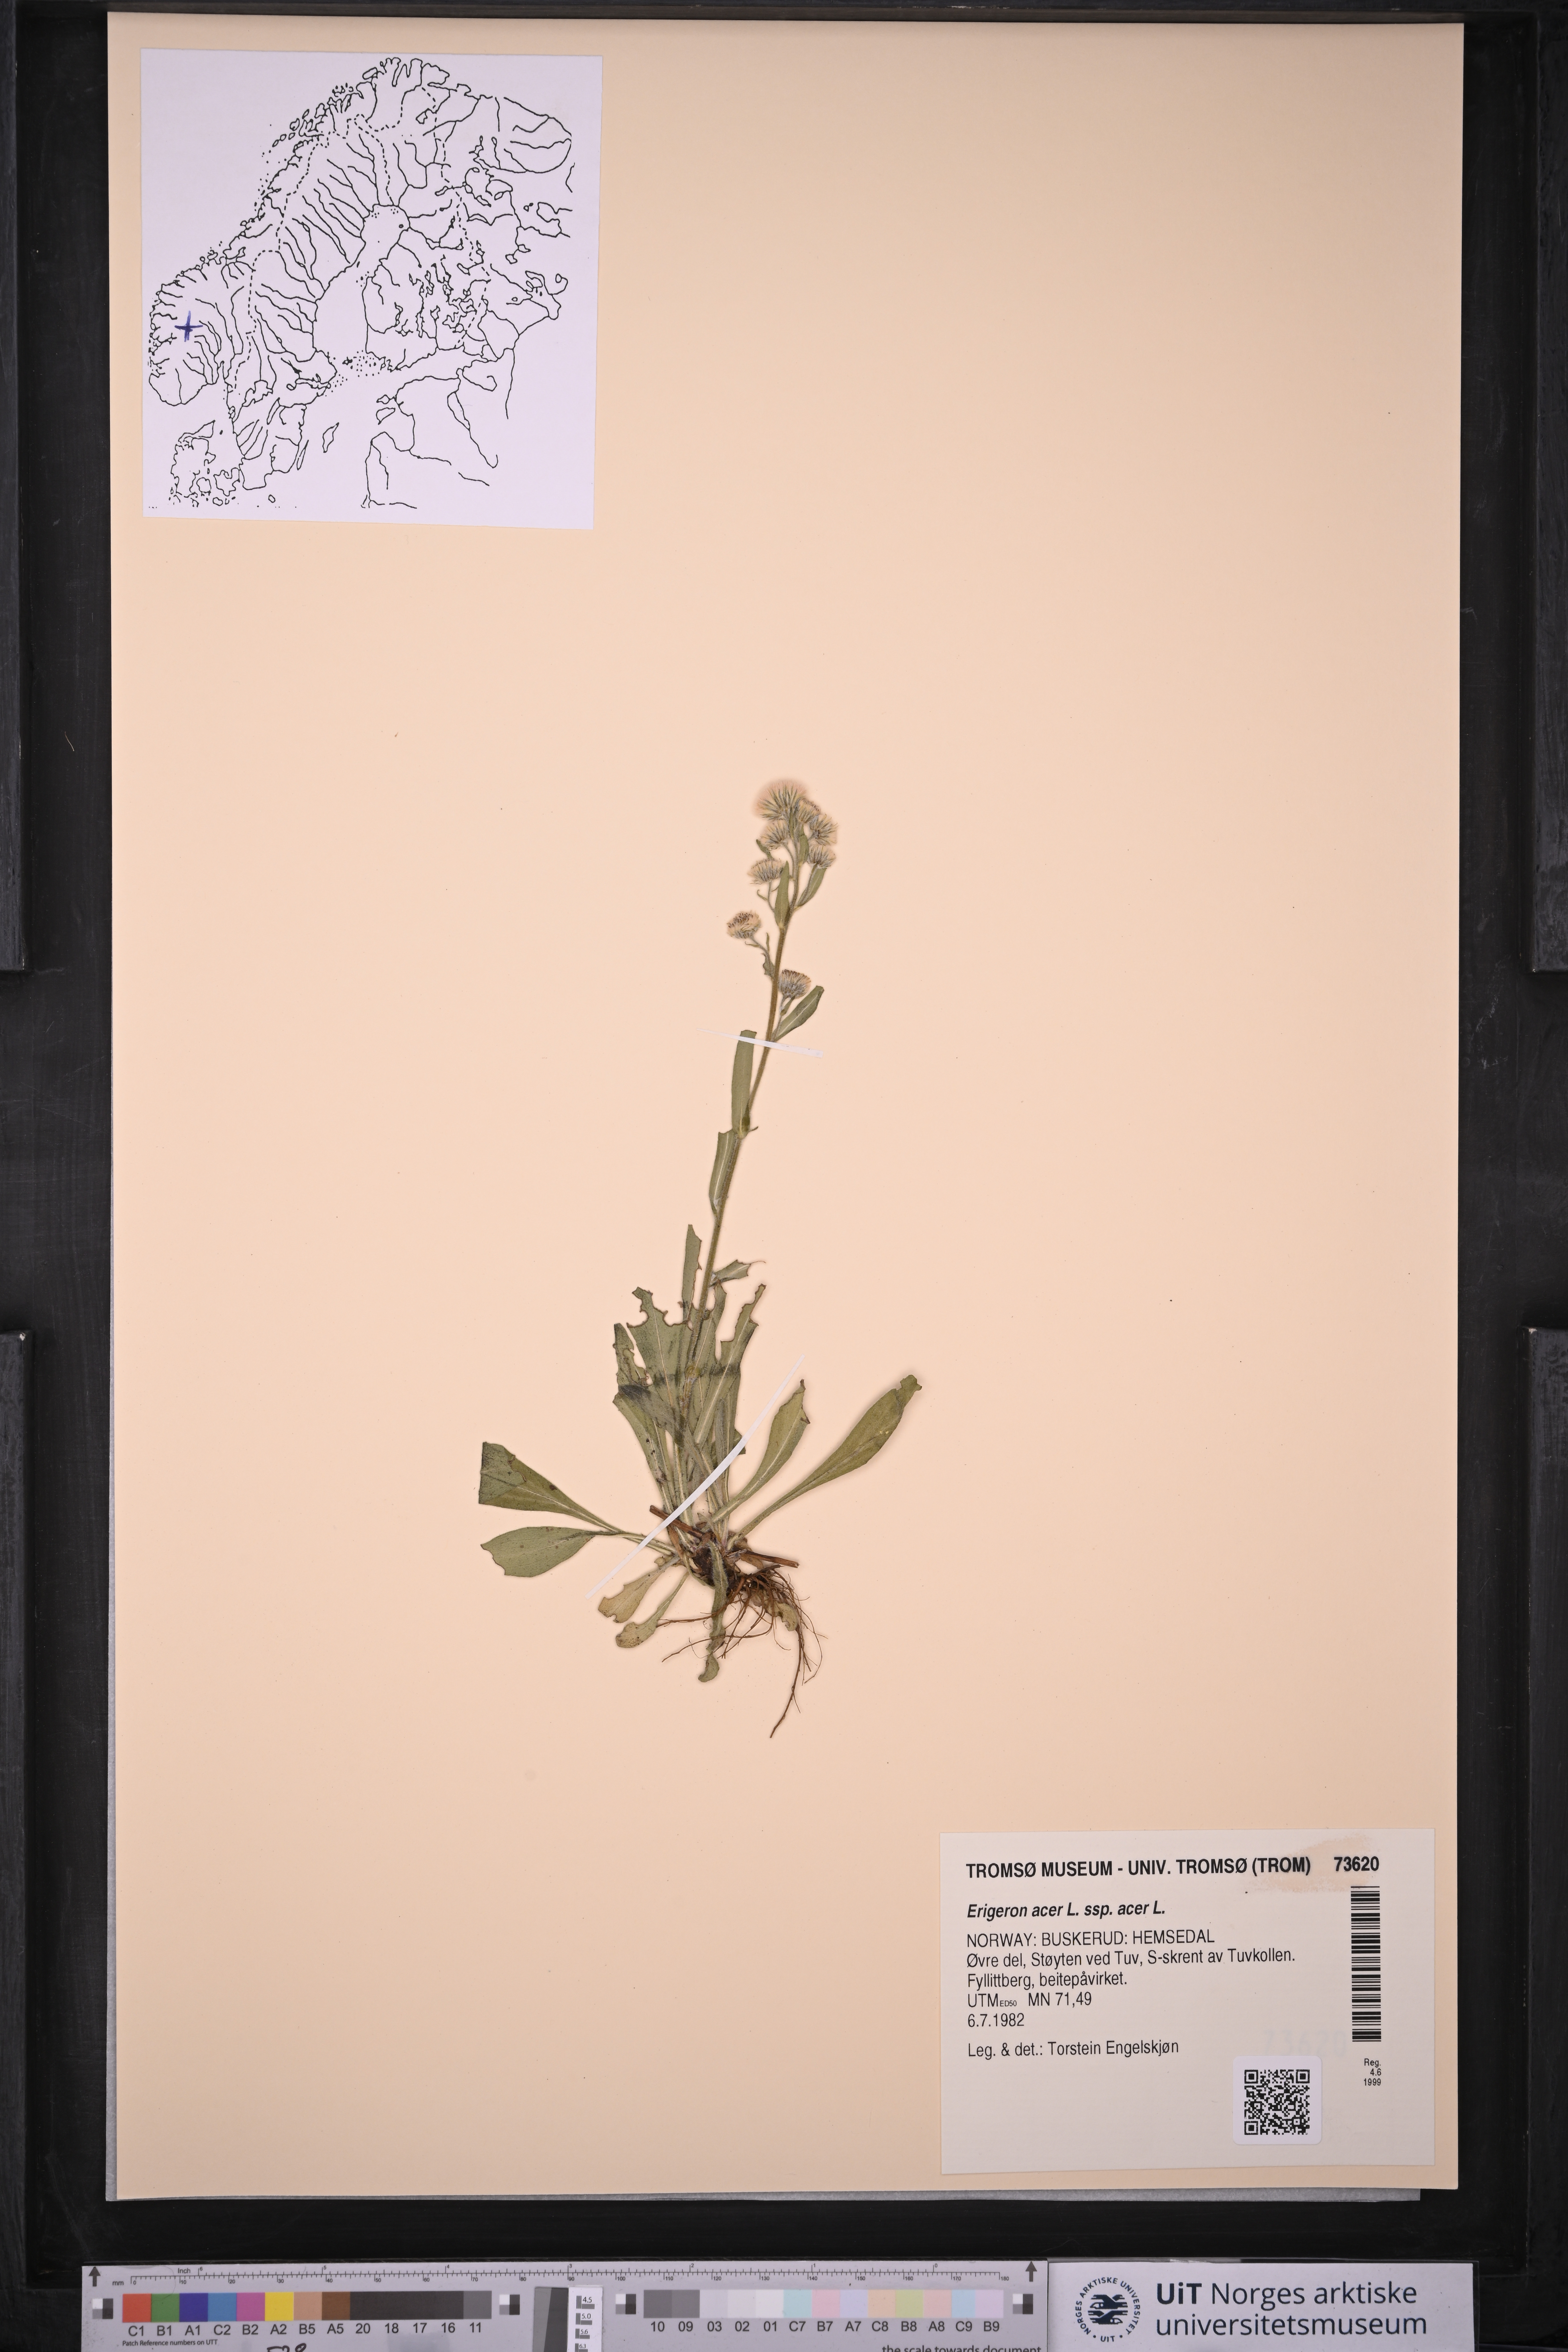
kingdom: Plantae
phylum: Tracheophyta
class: Magnoliopsida
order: Asterales
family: Asteraceae
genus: Erigeron
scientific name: Erigeron acris
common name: Blue fleabane
